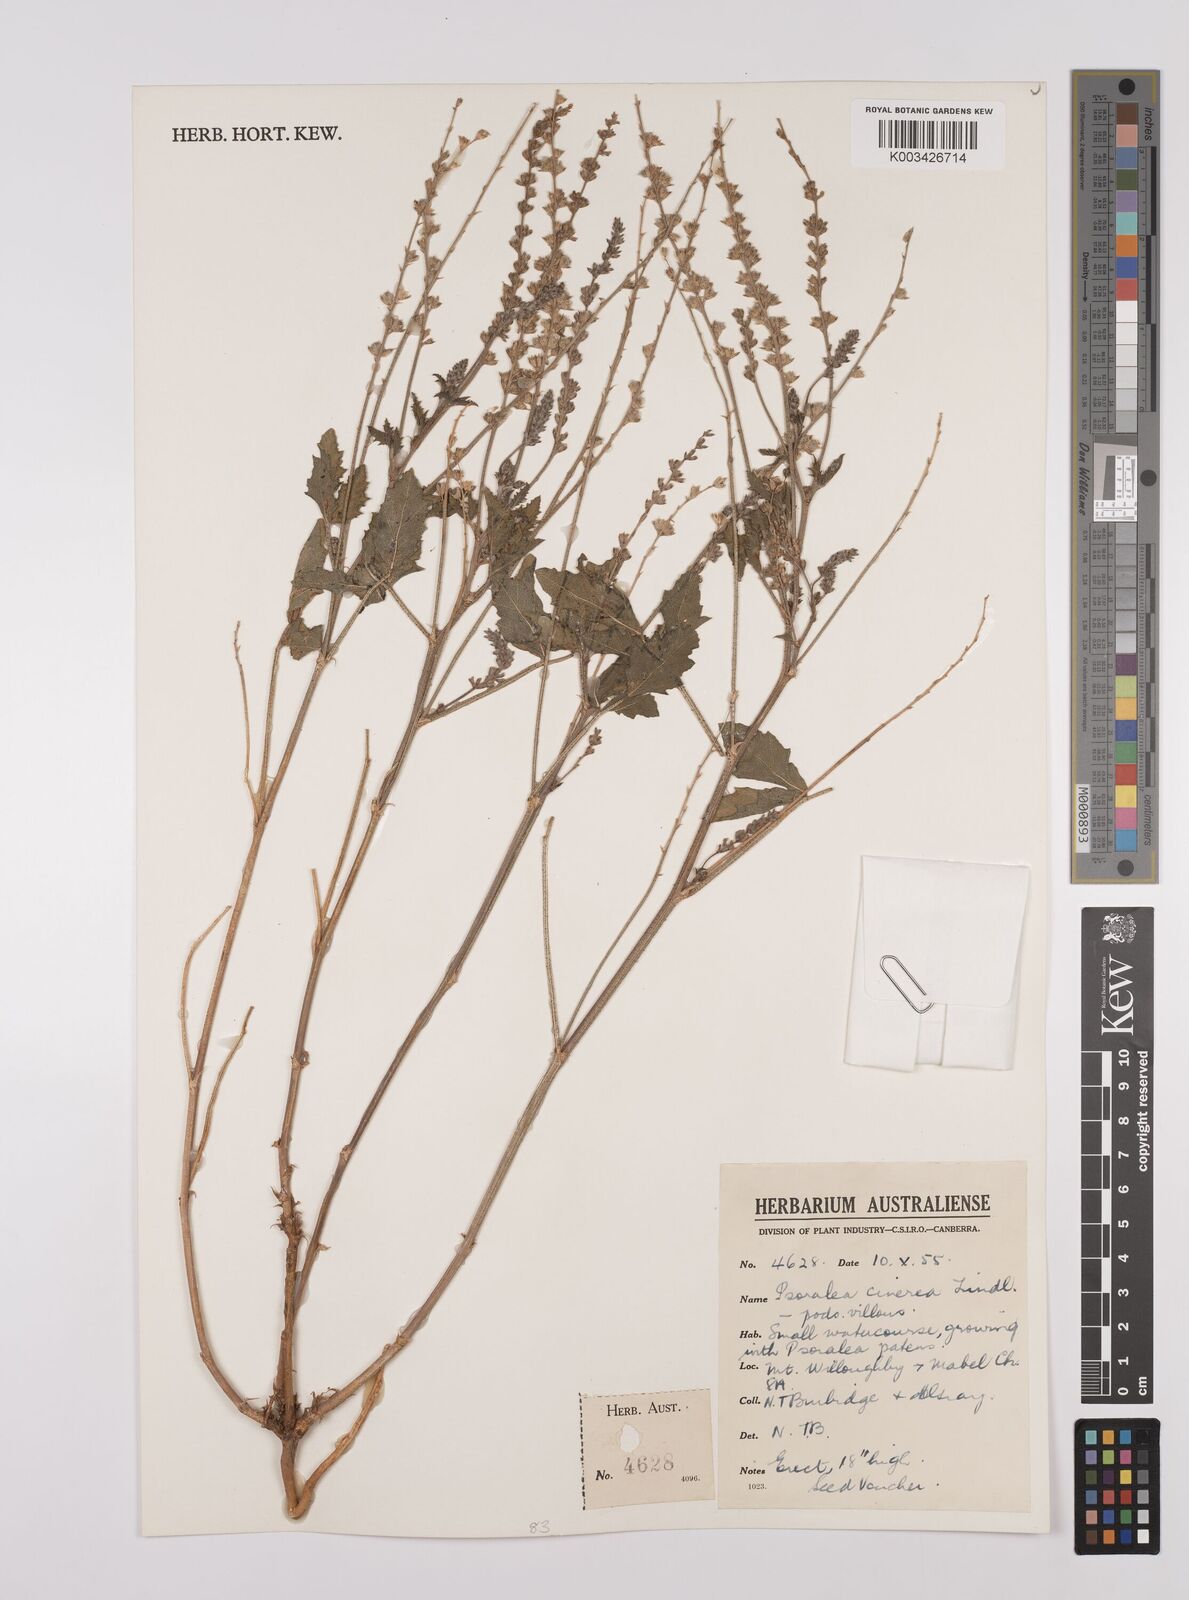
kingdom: Plantae
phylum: Tracheophyta
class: Magnoliopsida
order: Fabales
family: Fabaceae
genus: Cullen
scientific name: Cullen cinereum
